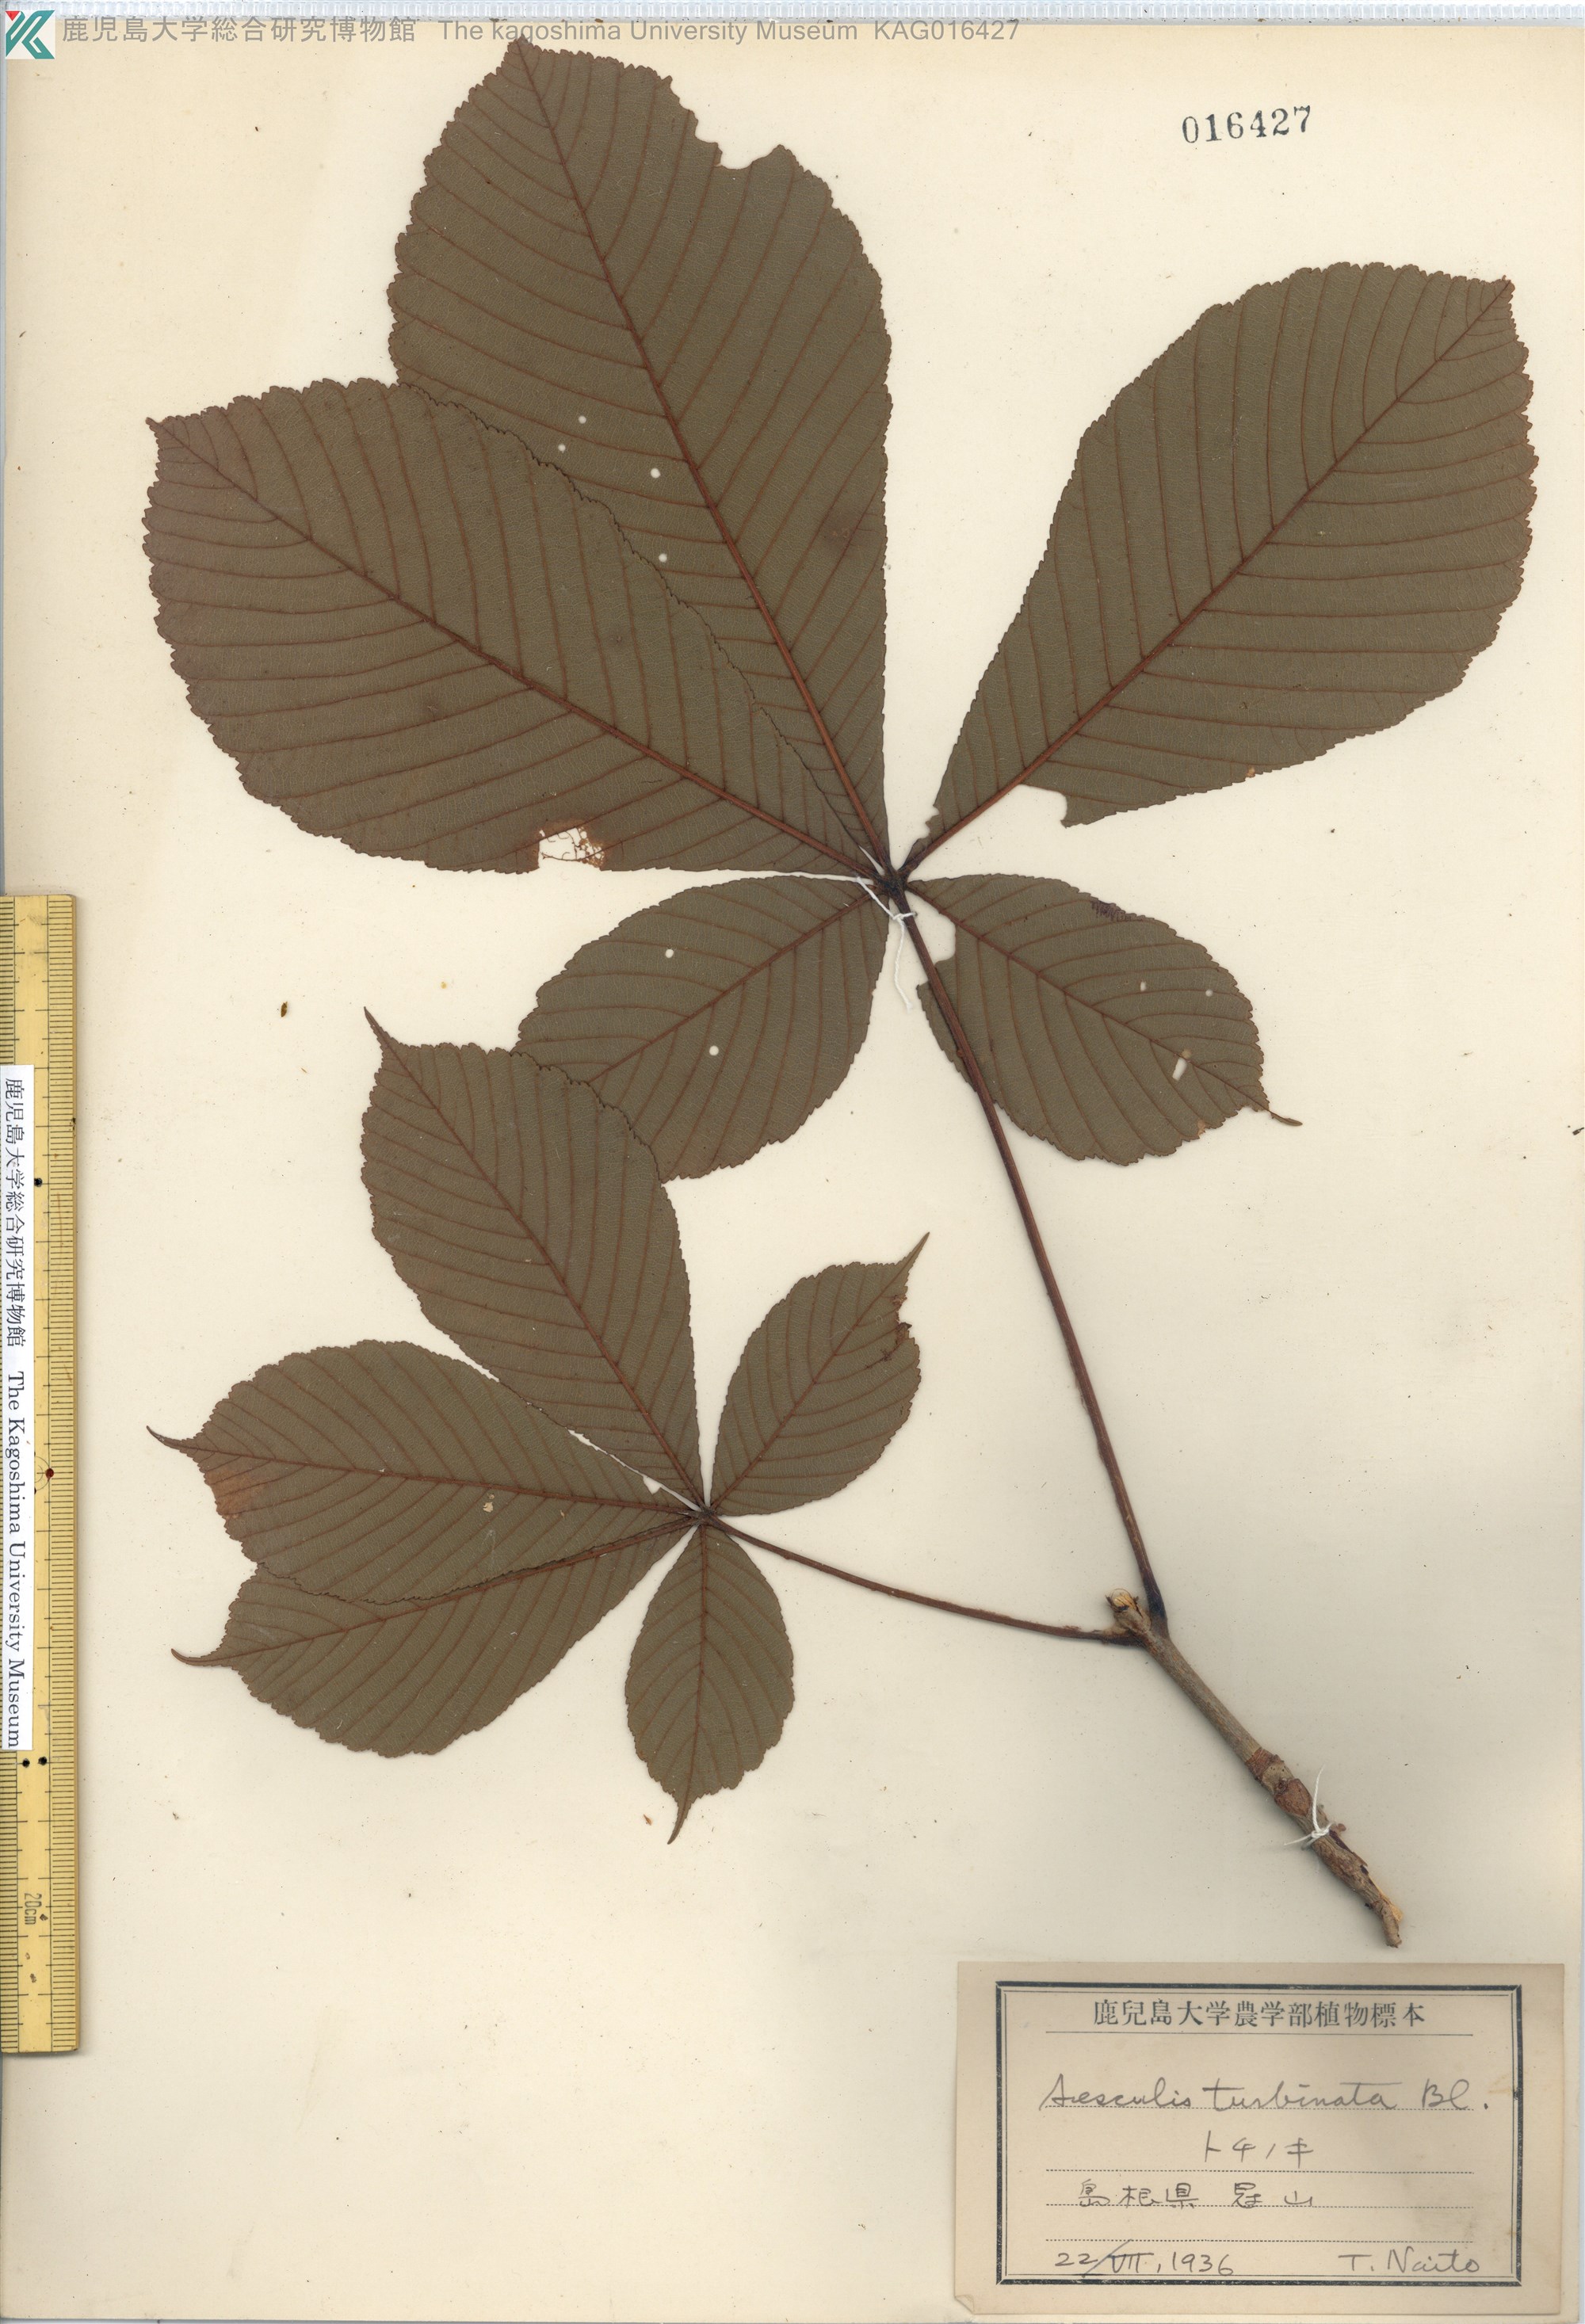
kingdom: Plantae
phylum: Tracheophyta
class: Magnoliopsida
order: Sapindales
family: Sapindaceae
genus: Aesculus
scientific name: Aesculus turbinata
